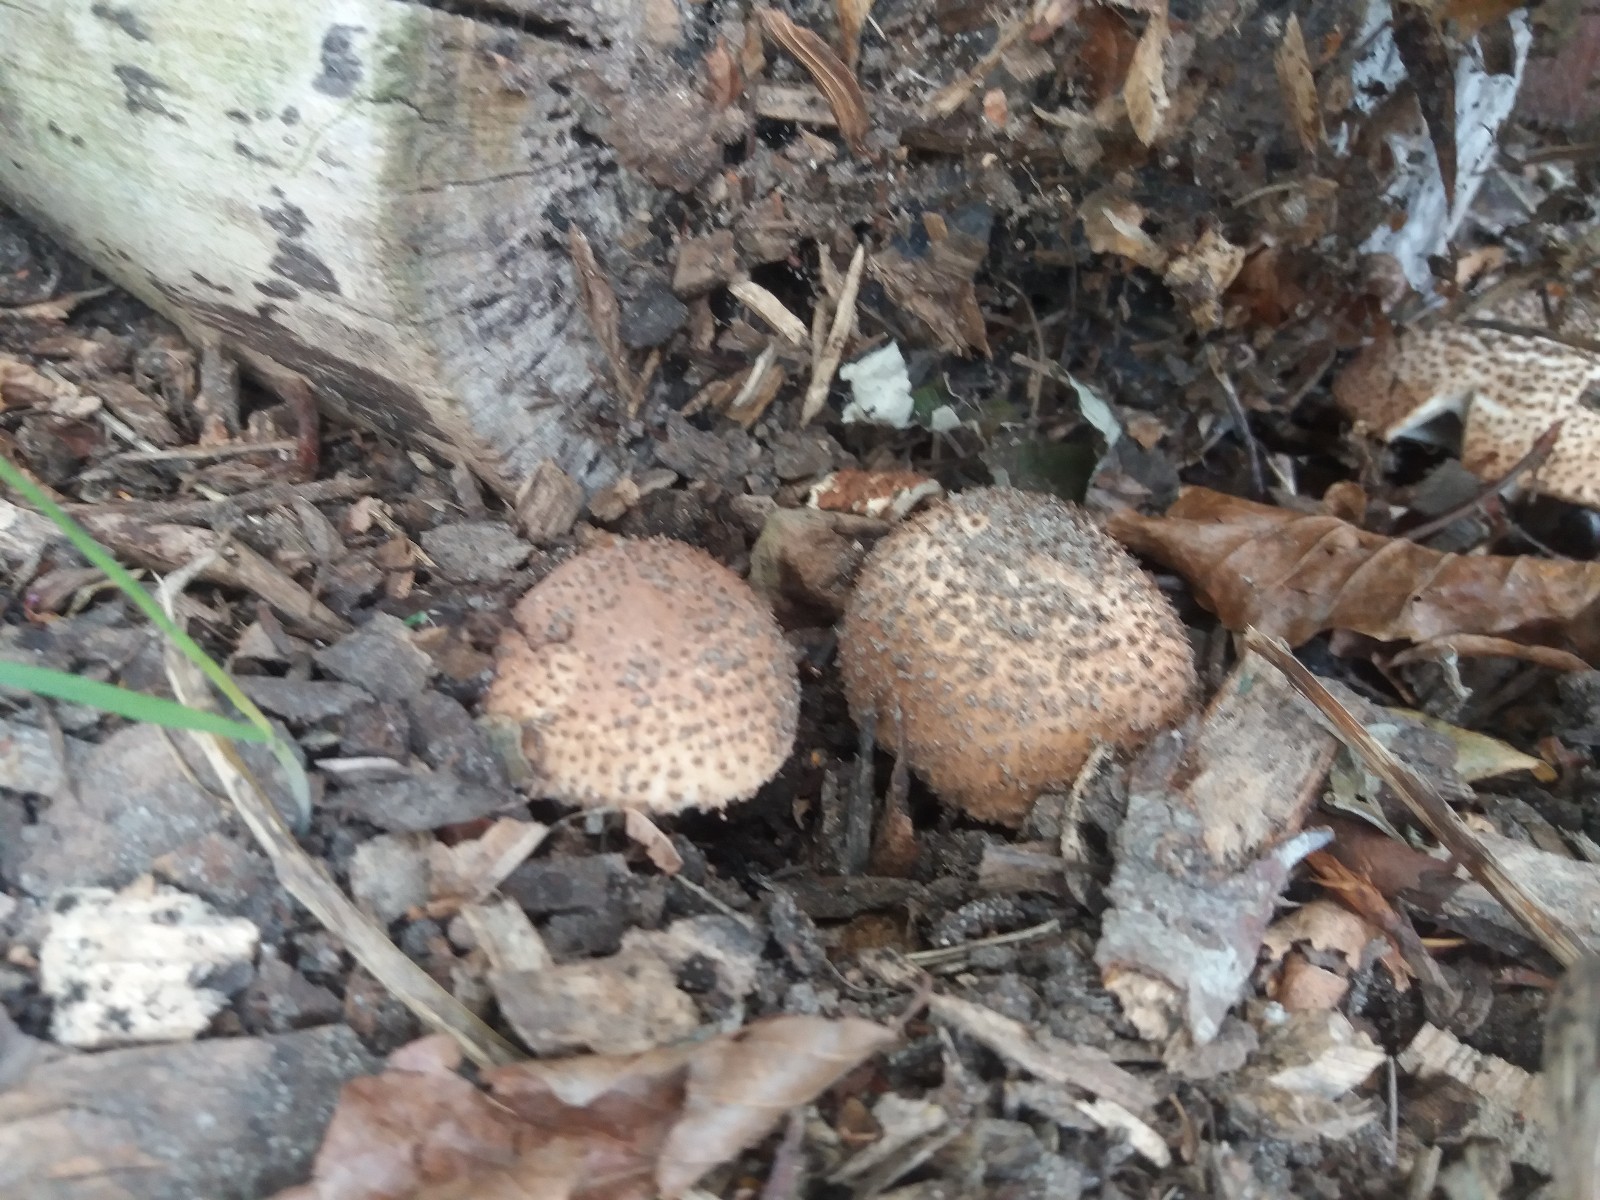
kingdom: Fungi
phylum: Basidiomycota
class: Agaricomycetes
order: Agaricales
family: Agaricaceae
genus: Echinoderma
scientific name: Echinoderma asperum
